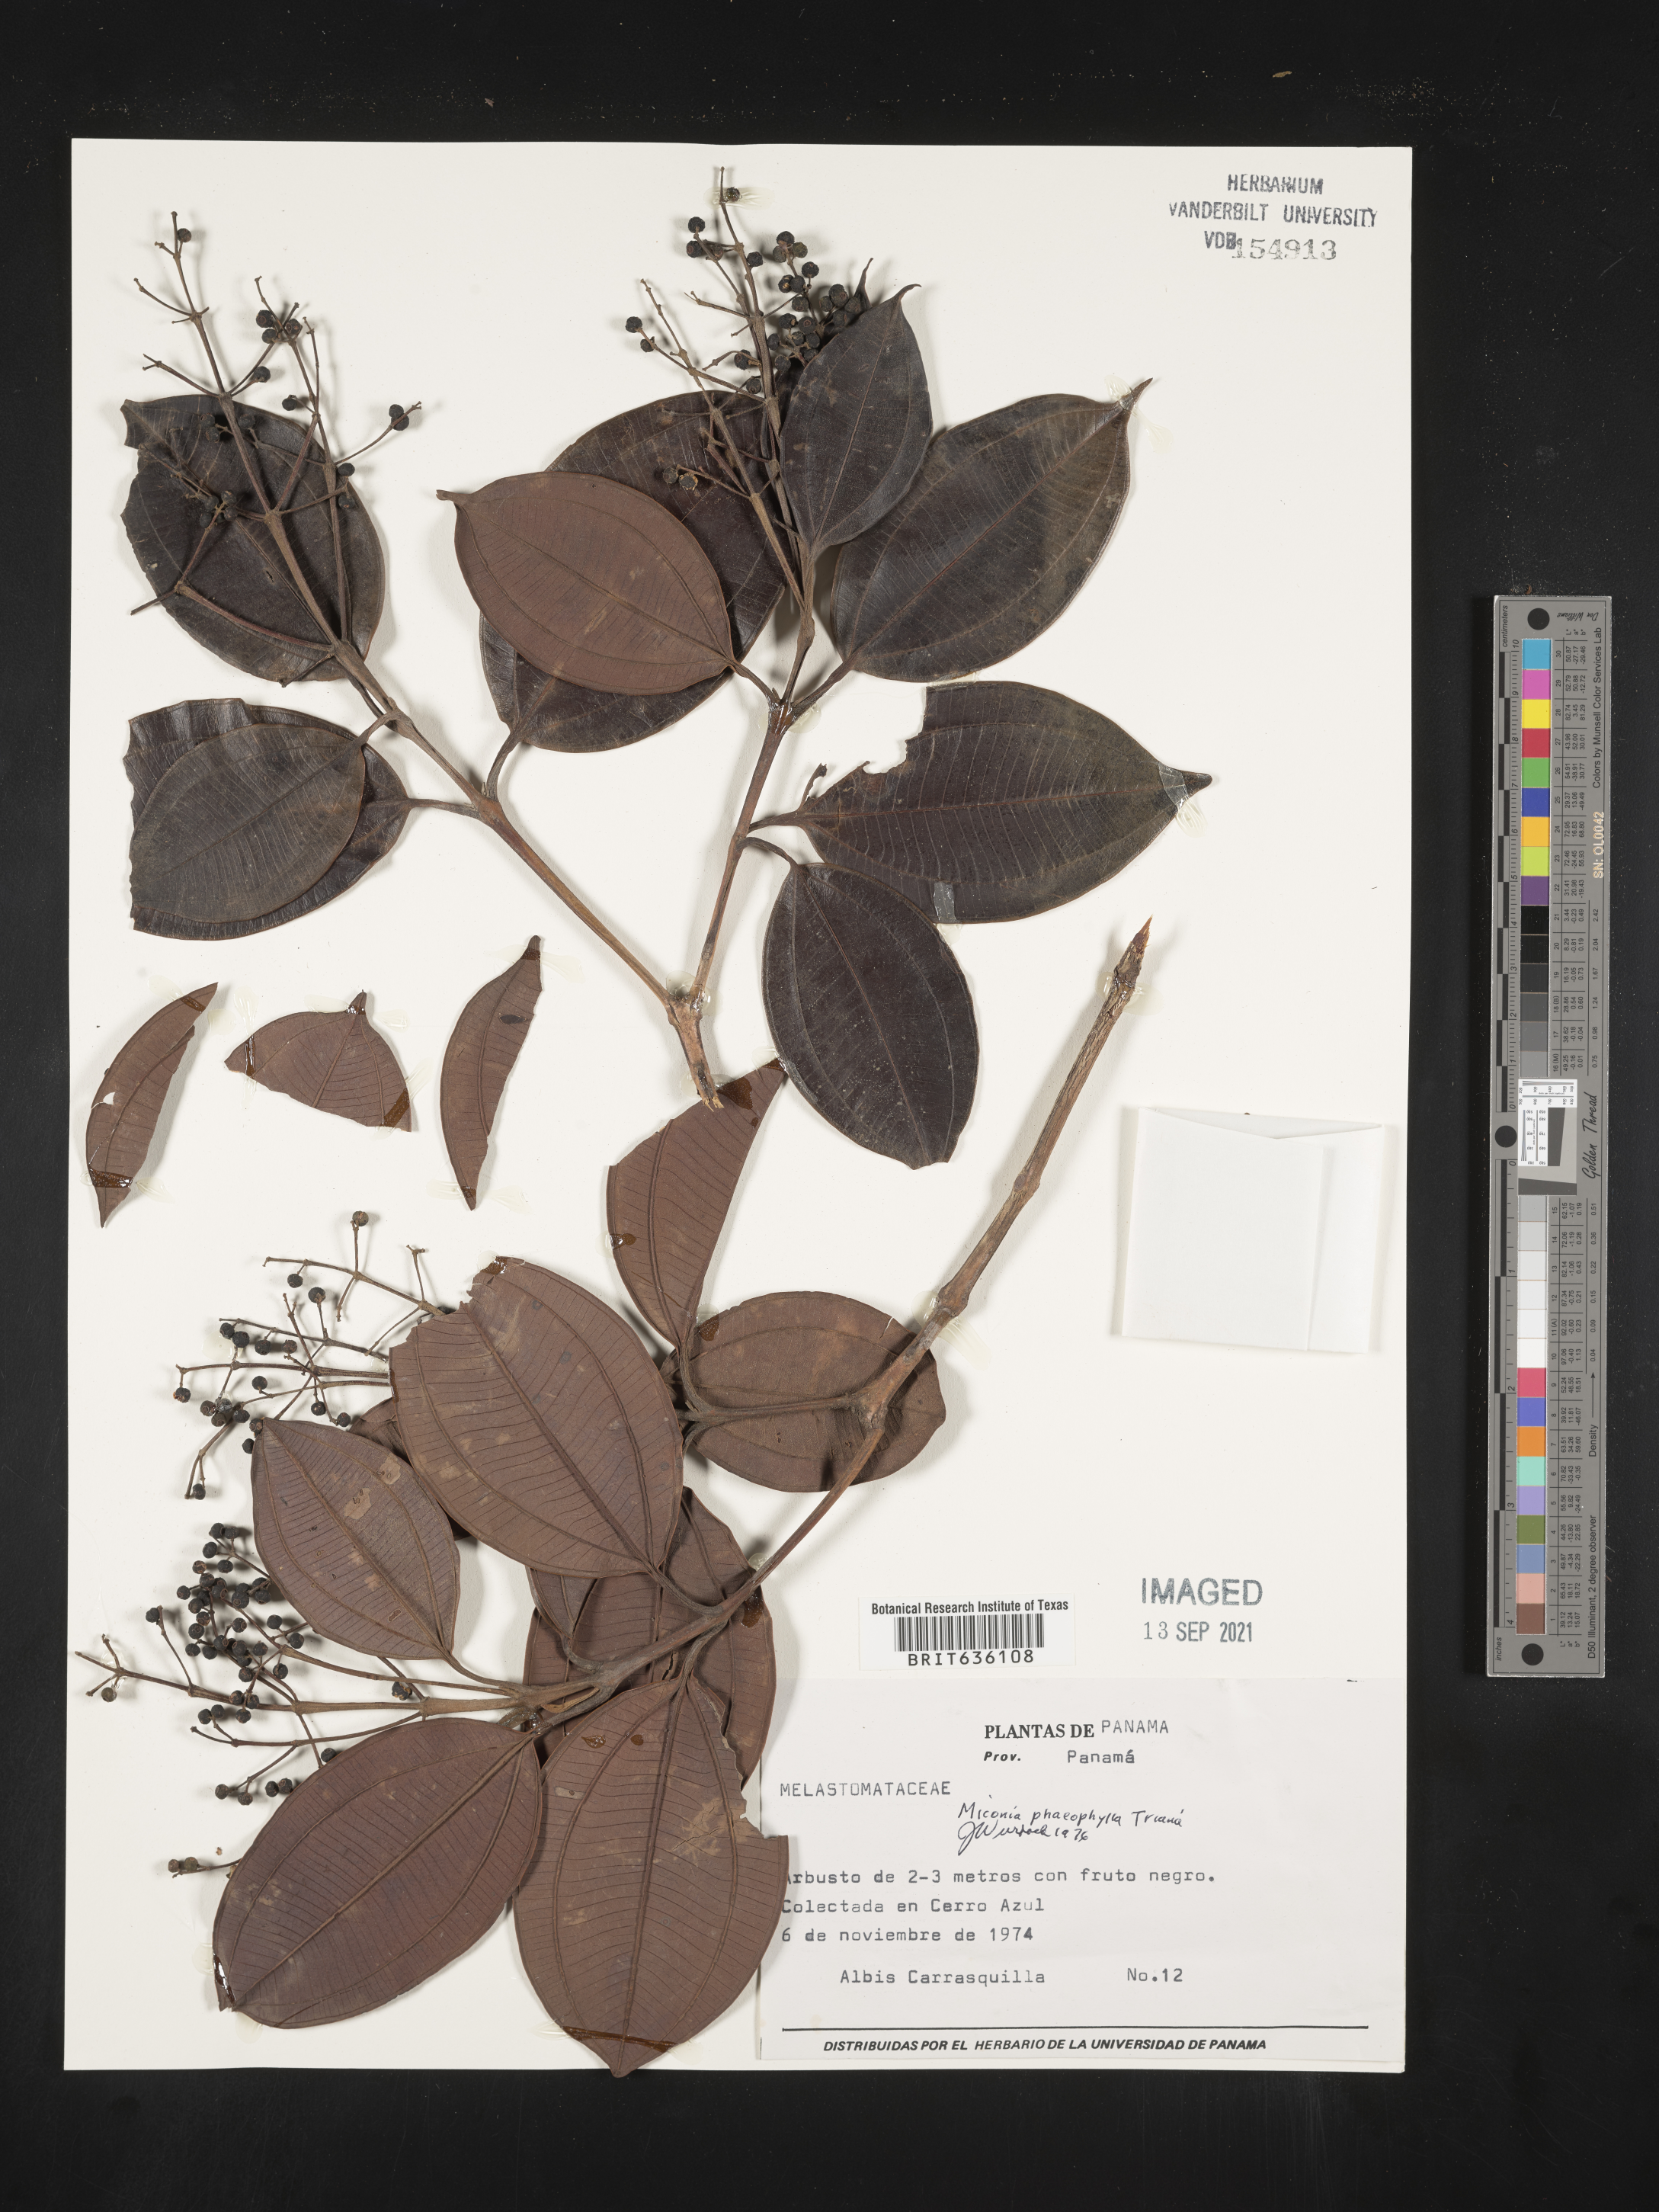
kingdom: Plantae
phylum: Tracheophyta
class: Magnoliopsida
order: Myrtales
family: Melastomataceae
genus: Miconia
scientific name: Miconia
